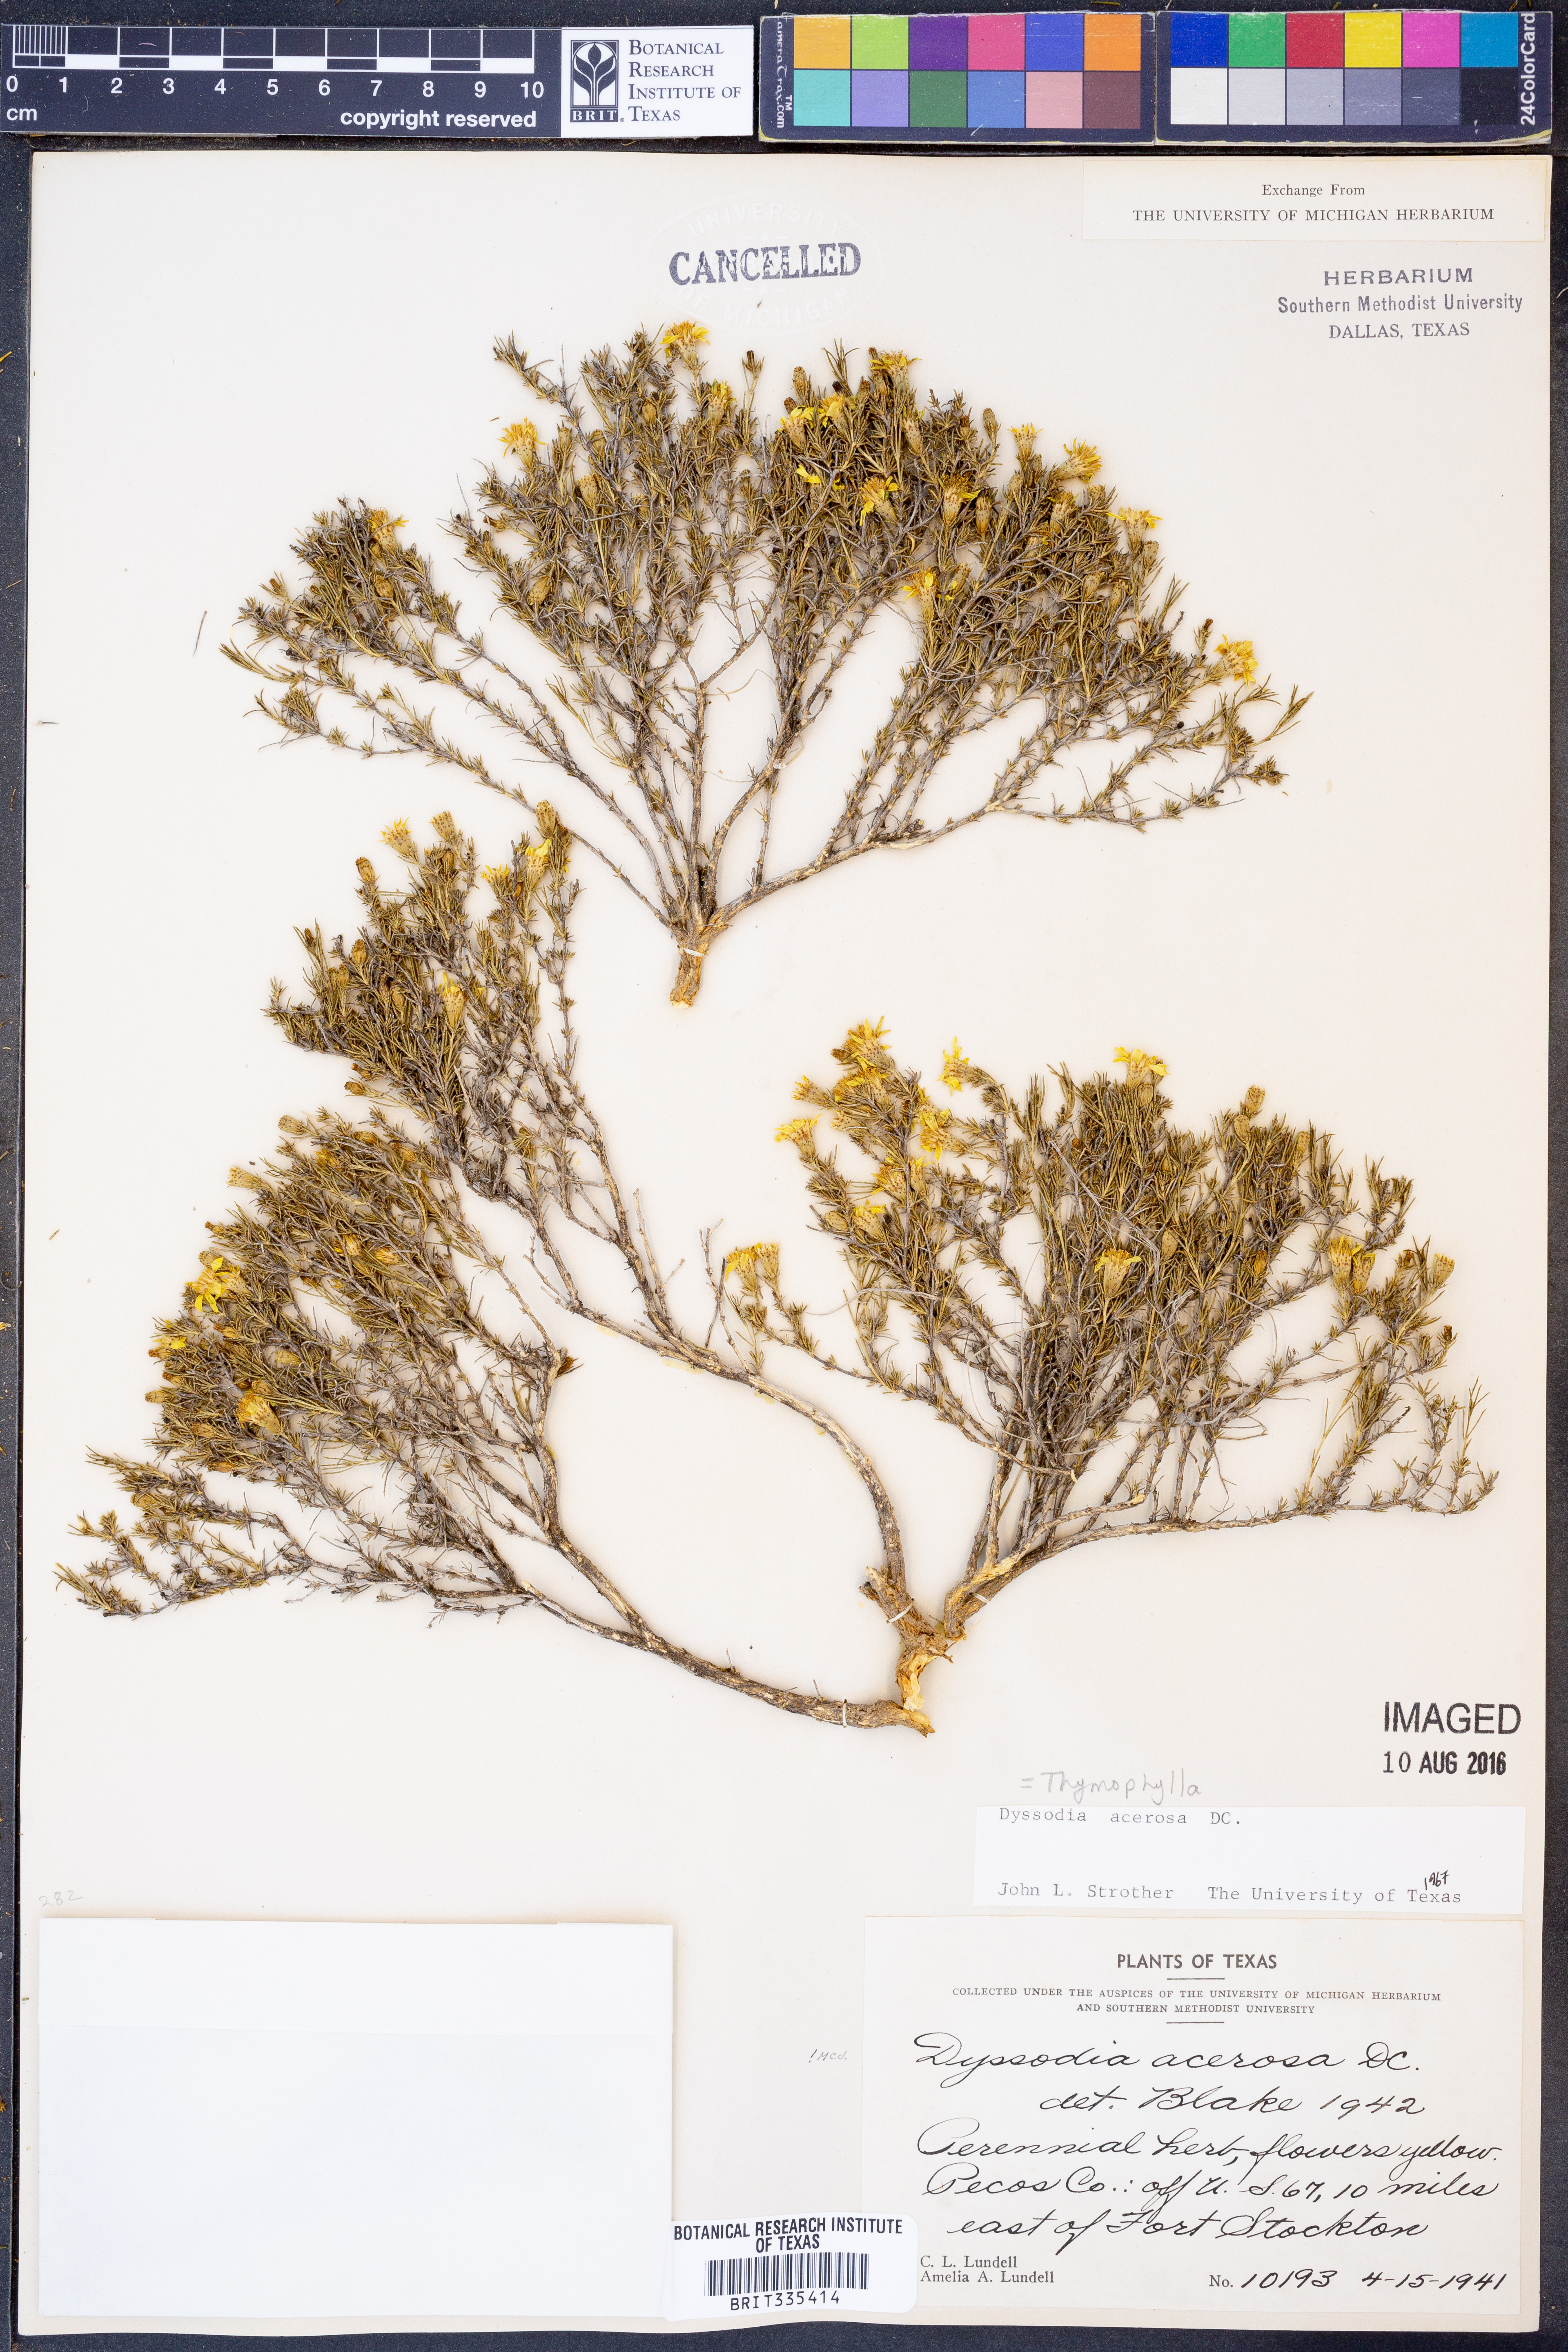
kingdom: Plantae
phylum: Tracheophyta
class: Magnoliopsida
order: Asterales
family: Asteraceae
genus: Thymophylla
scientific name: Thymophylla acerosa
